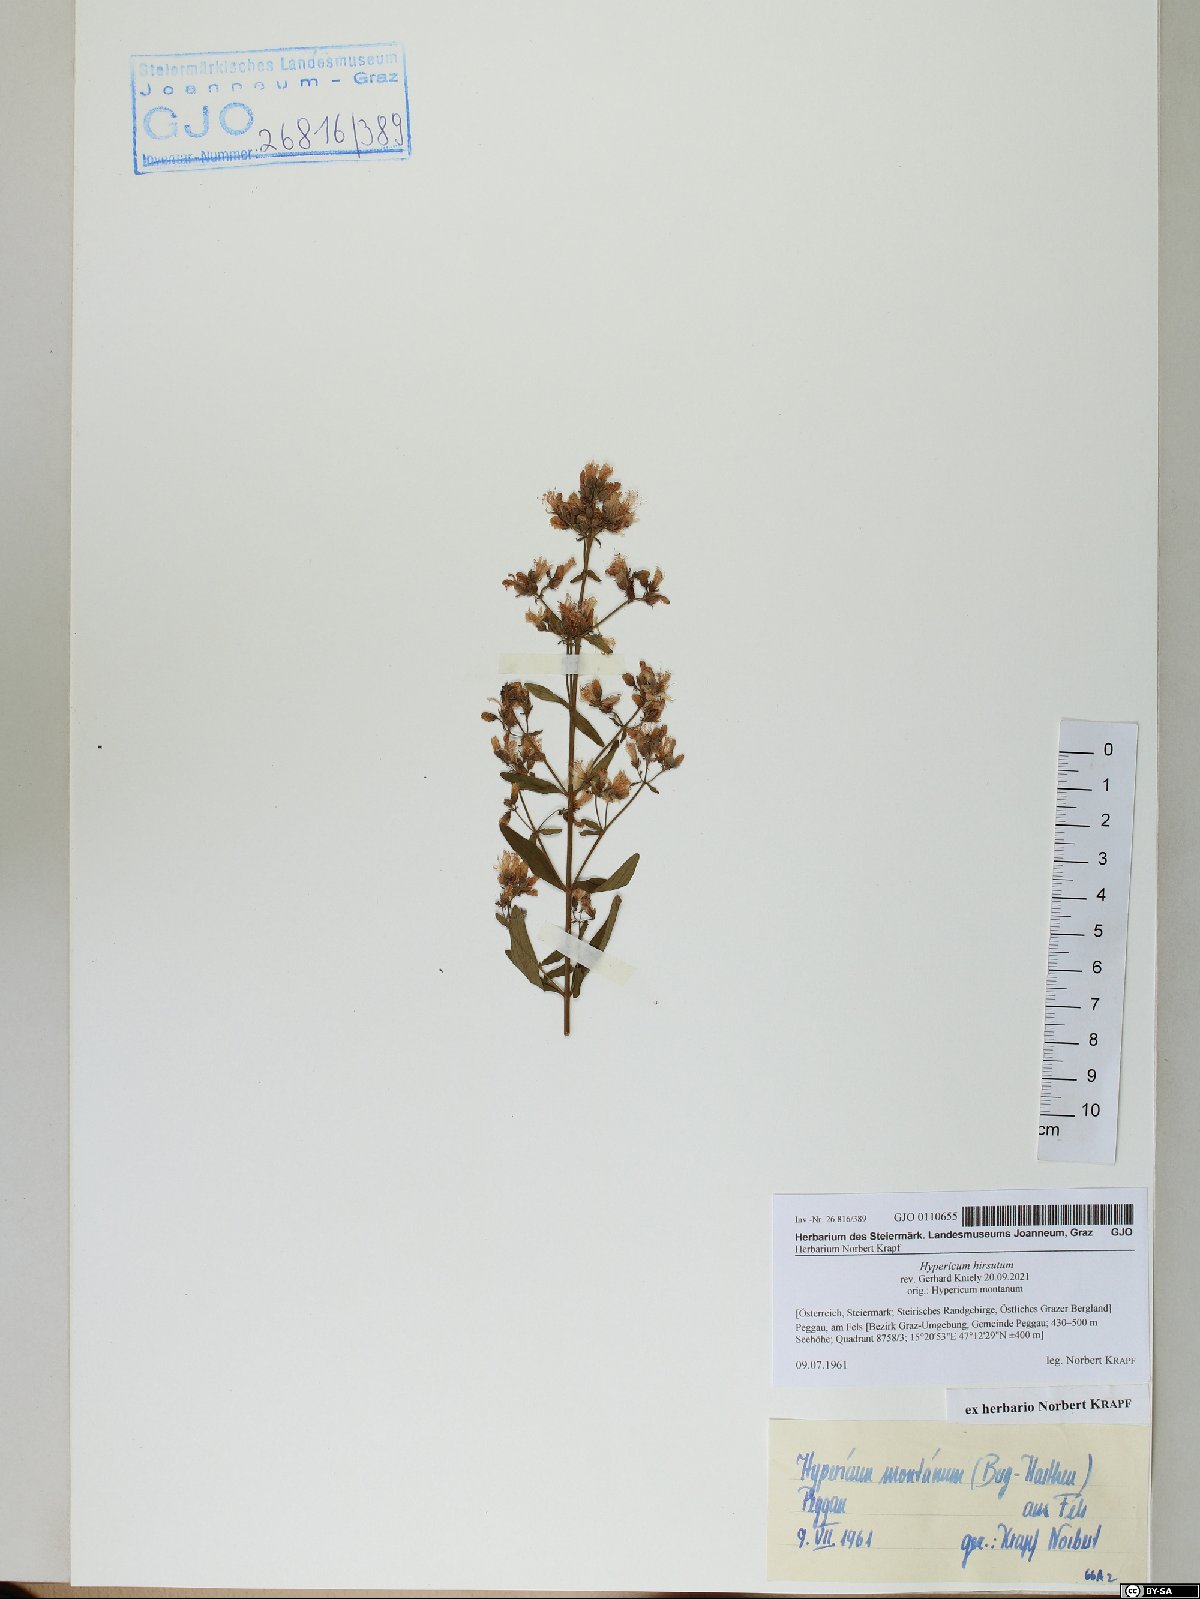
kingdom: Plantae
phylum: Tracheophyta
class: Magnoliopsida
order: Malpighiales
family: Hypericaceae
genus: Hypericum
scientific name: Hypericum hirsutum
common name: Hairy st. john's-wort
